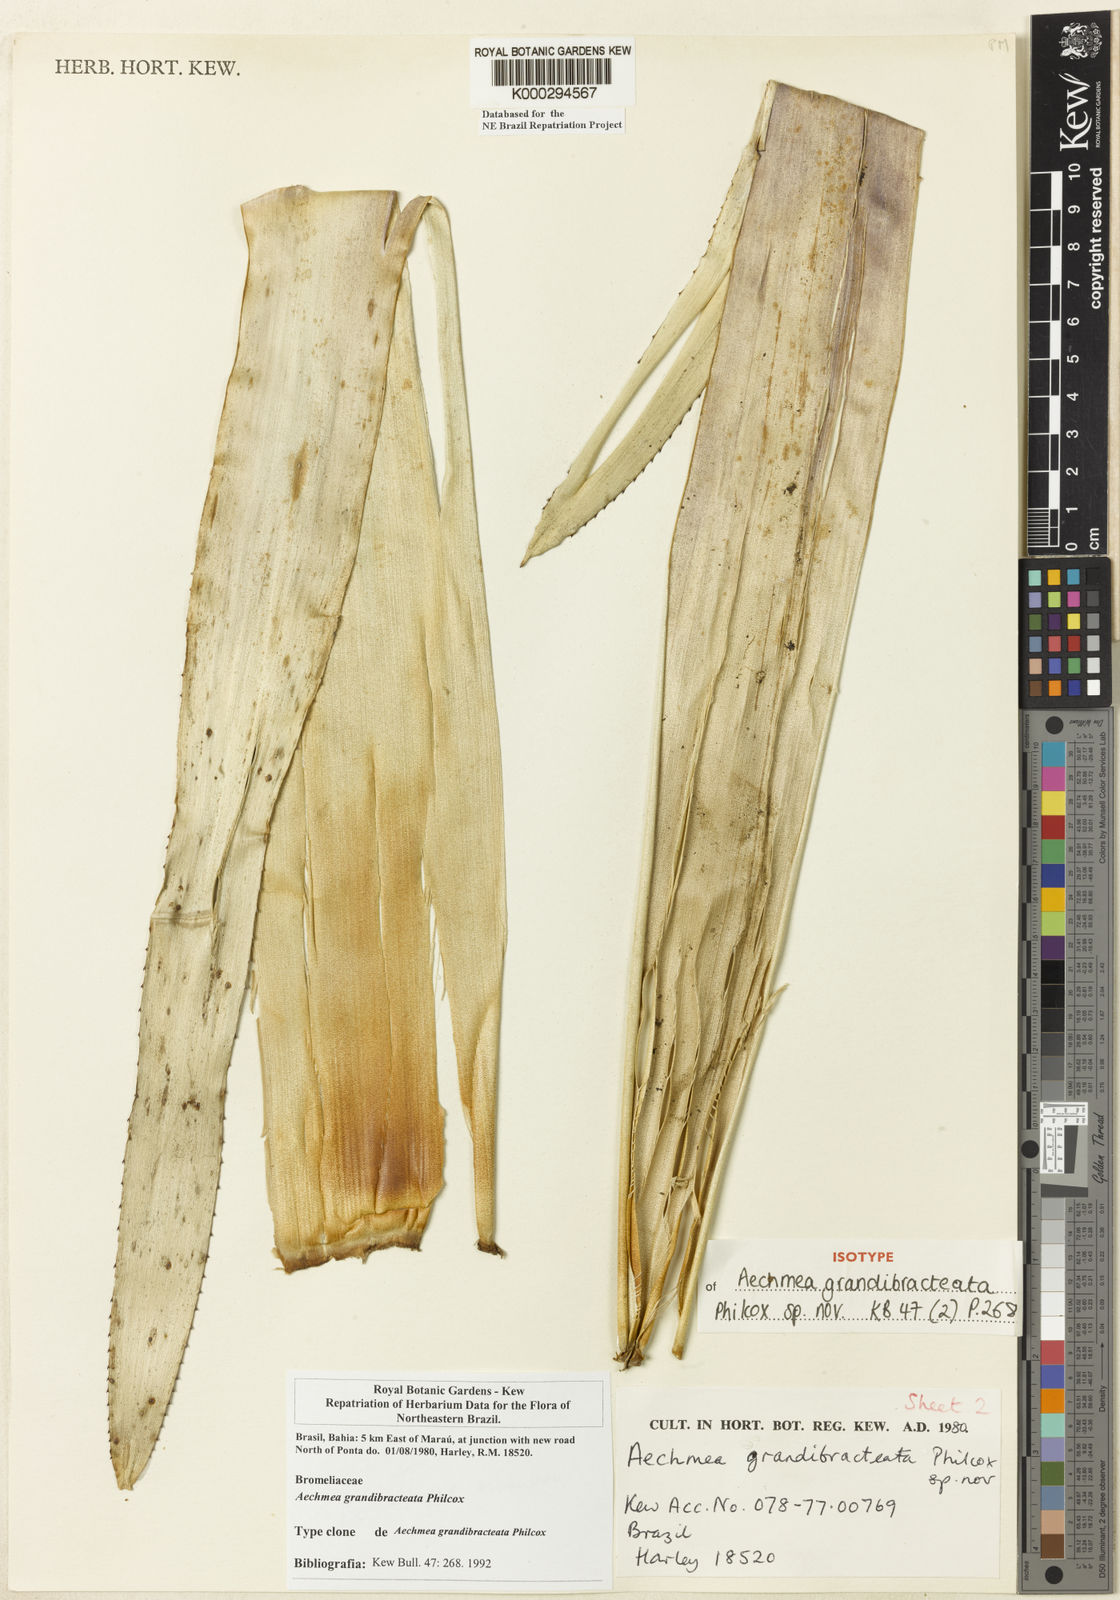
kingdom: Plantae
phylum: Tracheophyta
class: Liliopsida
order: Poales
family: Bromeliaceae
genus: Aechmea
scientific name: Aechmea marauensis
